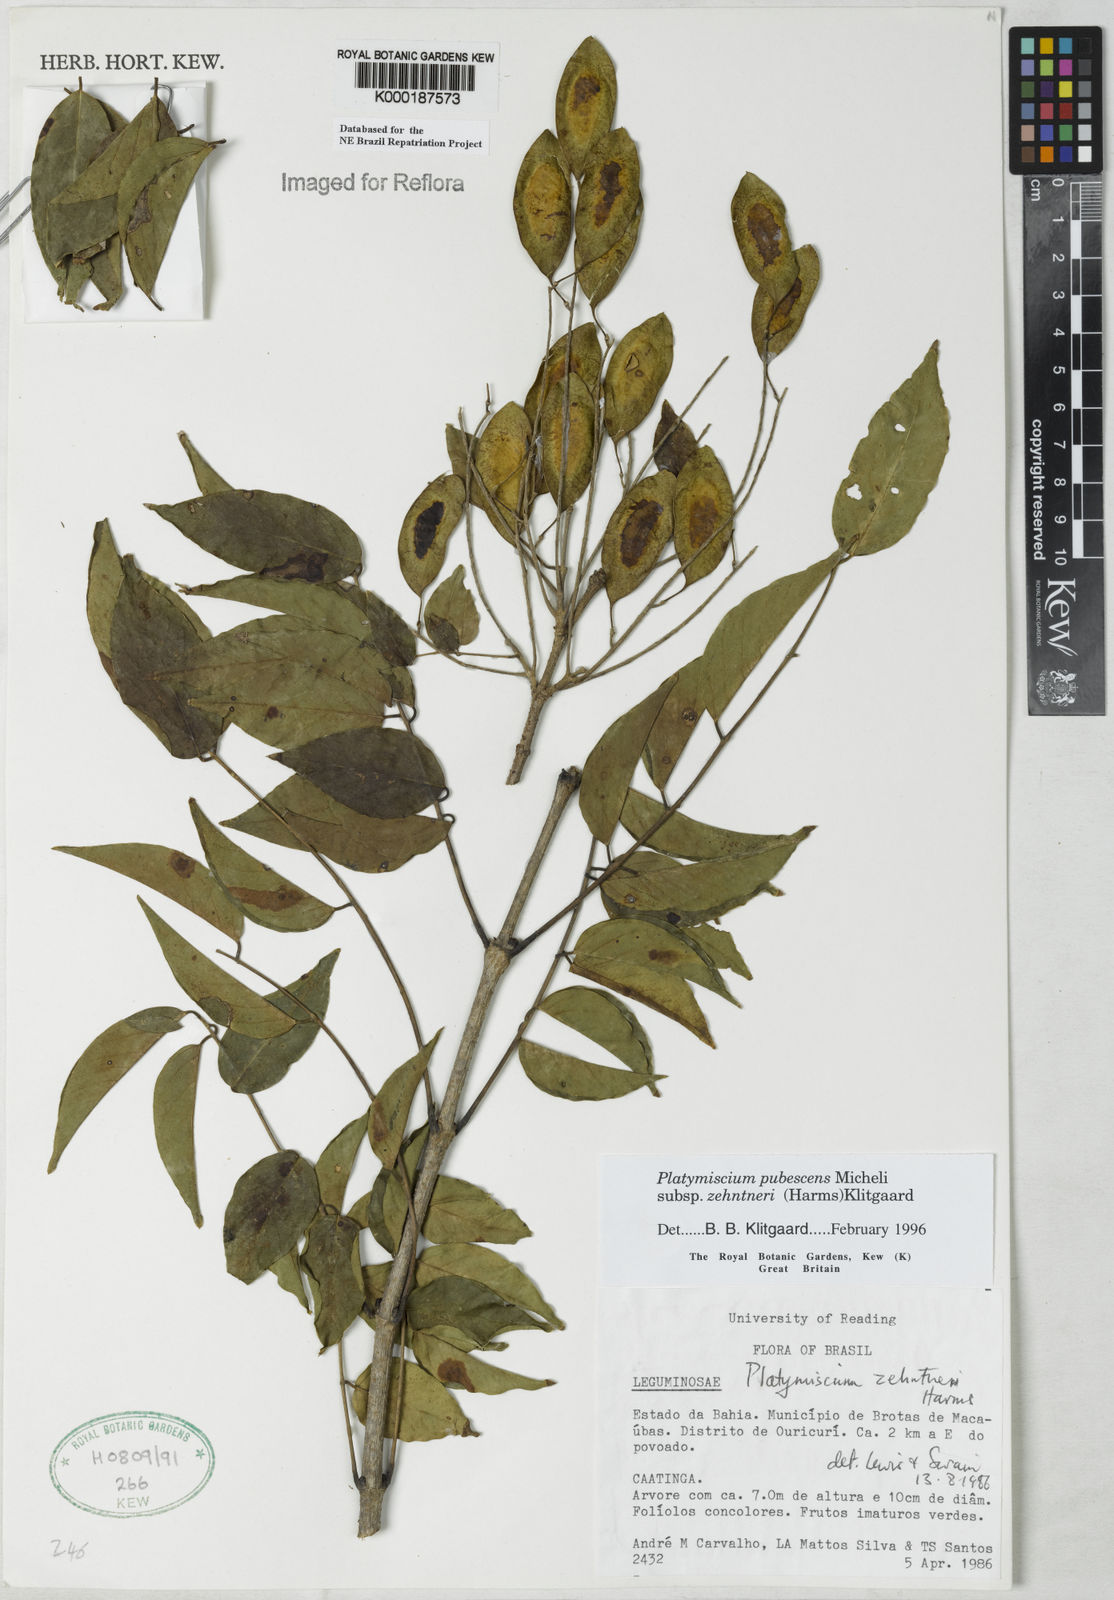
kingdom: Plantae
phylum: Tracheophyta
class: Magnoliopsida
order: Fabales
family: Fabaceae
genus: Platymiscium
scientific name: Platymiscium pubescens
